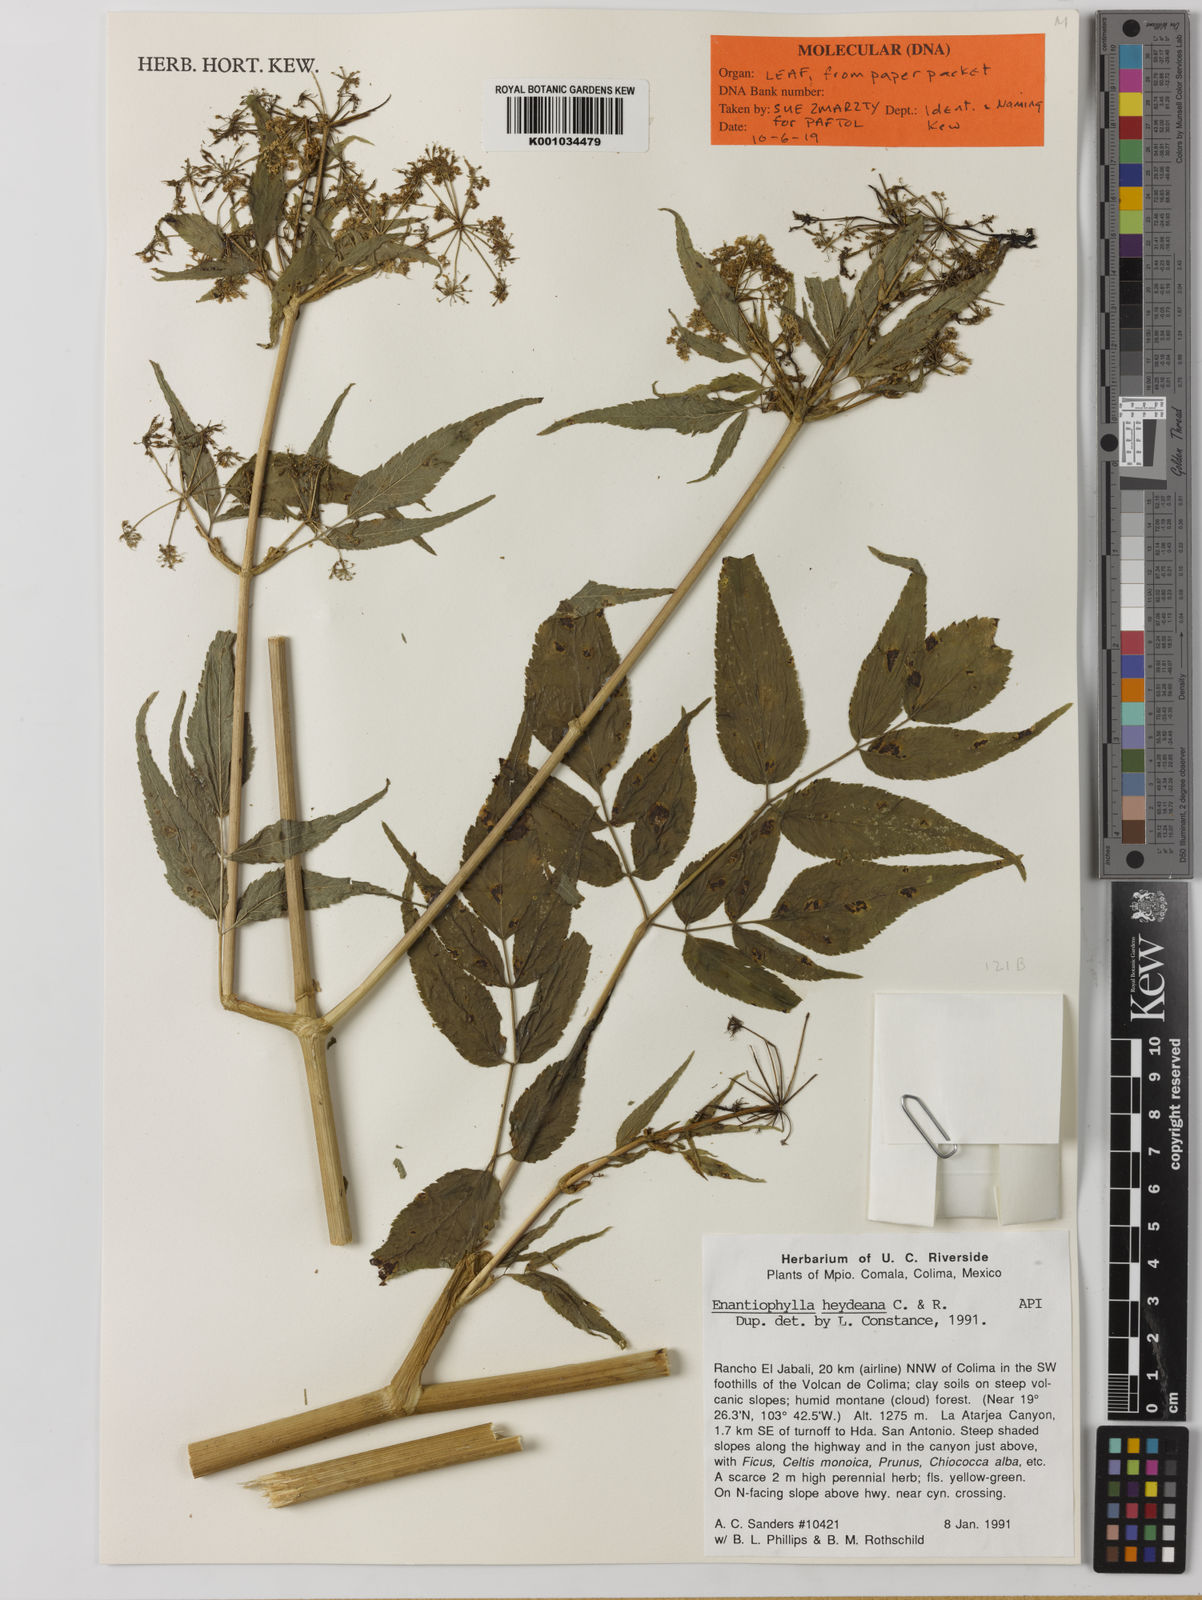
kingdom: Plantae
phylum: Tracheophyta
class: Magnoliopsida
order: Apiales
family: Apiaceae
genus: Enantiophylla
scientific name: Enantiophylla heydeana
